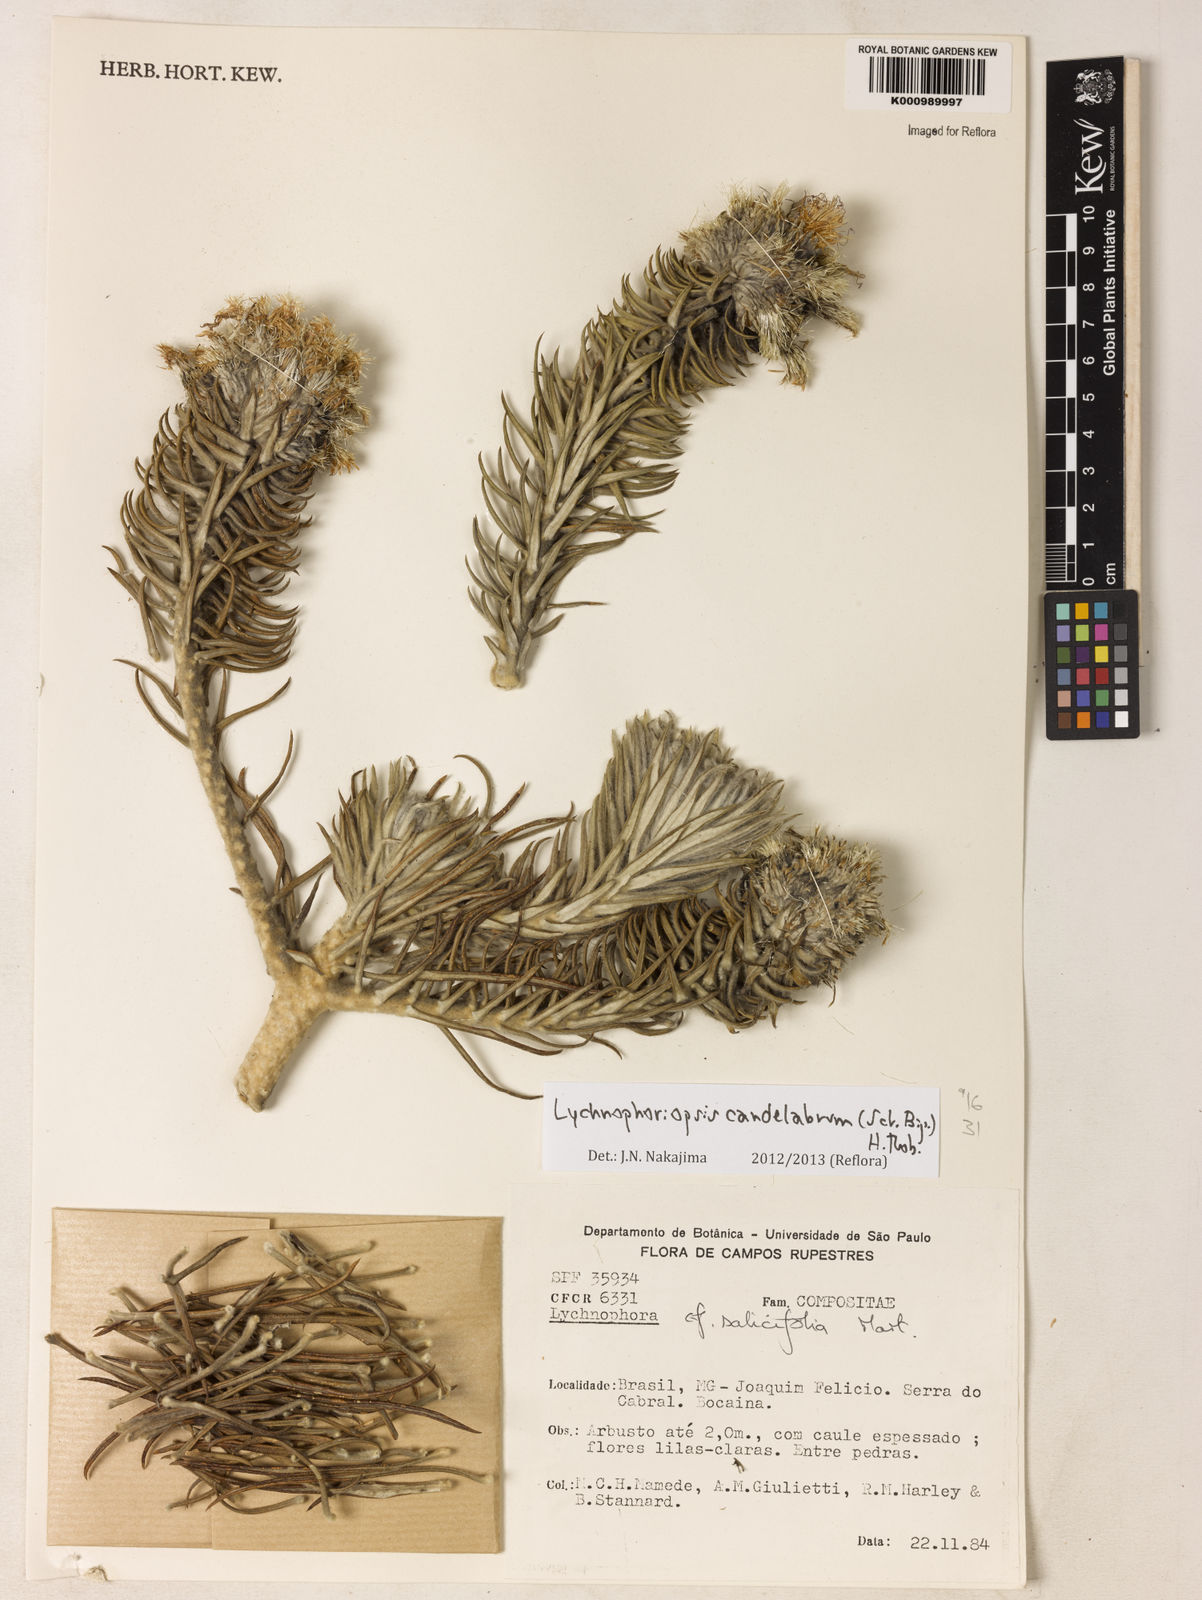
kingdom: Plantae
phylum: Tracheophyta
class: Magnoliopsida
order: Asterales
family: Asteraceae
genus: Lychnophora
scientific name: Lychnophora candelabrum
